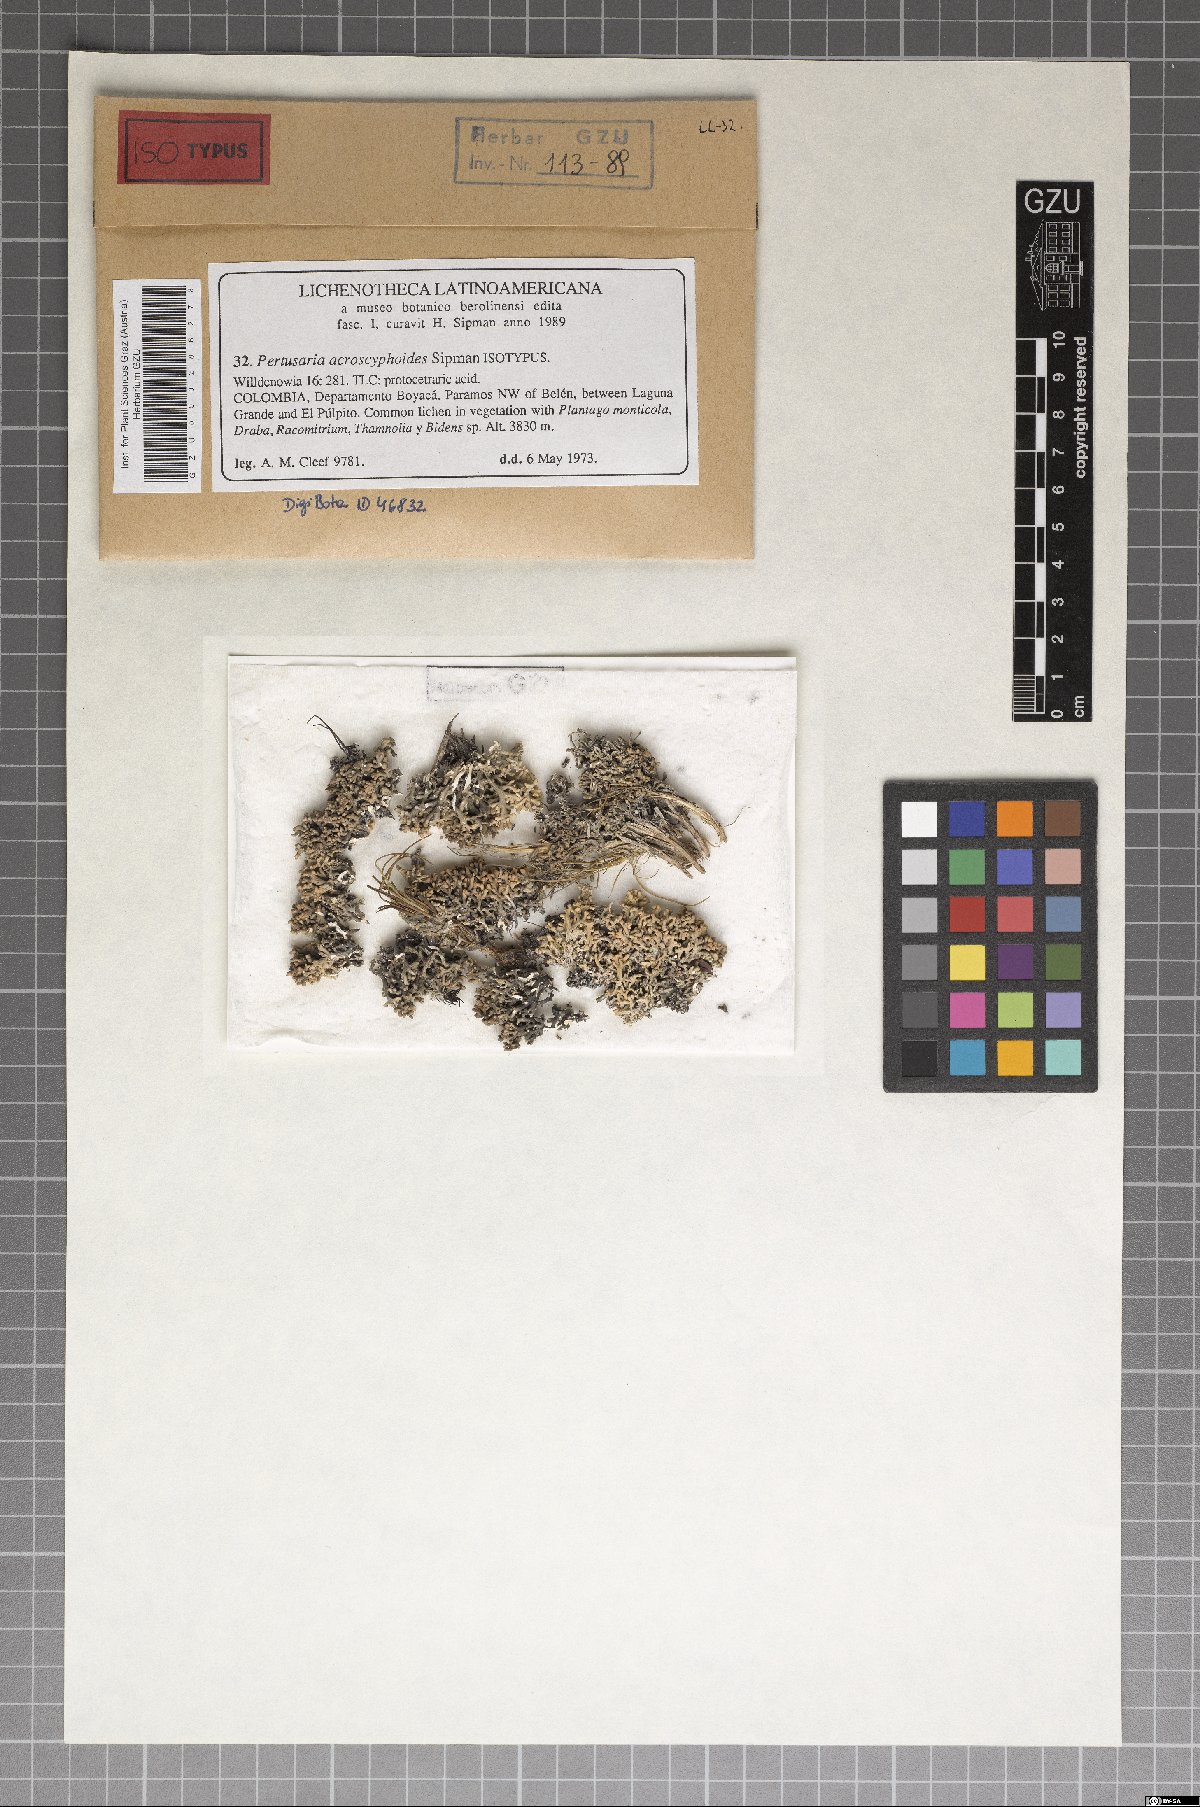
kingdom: Fungi
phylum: Ascomycota
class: Lecanoromycetes
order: Pertusariales
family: Pertusariaceae
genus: Lepra
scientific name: Lepra acroscyphoides
